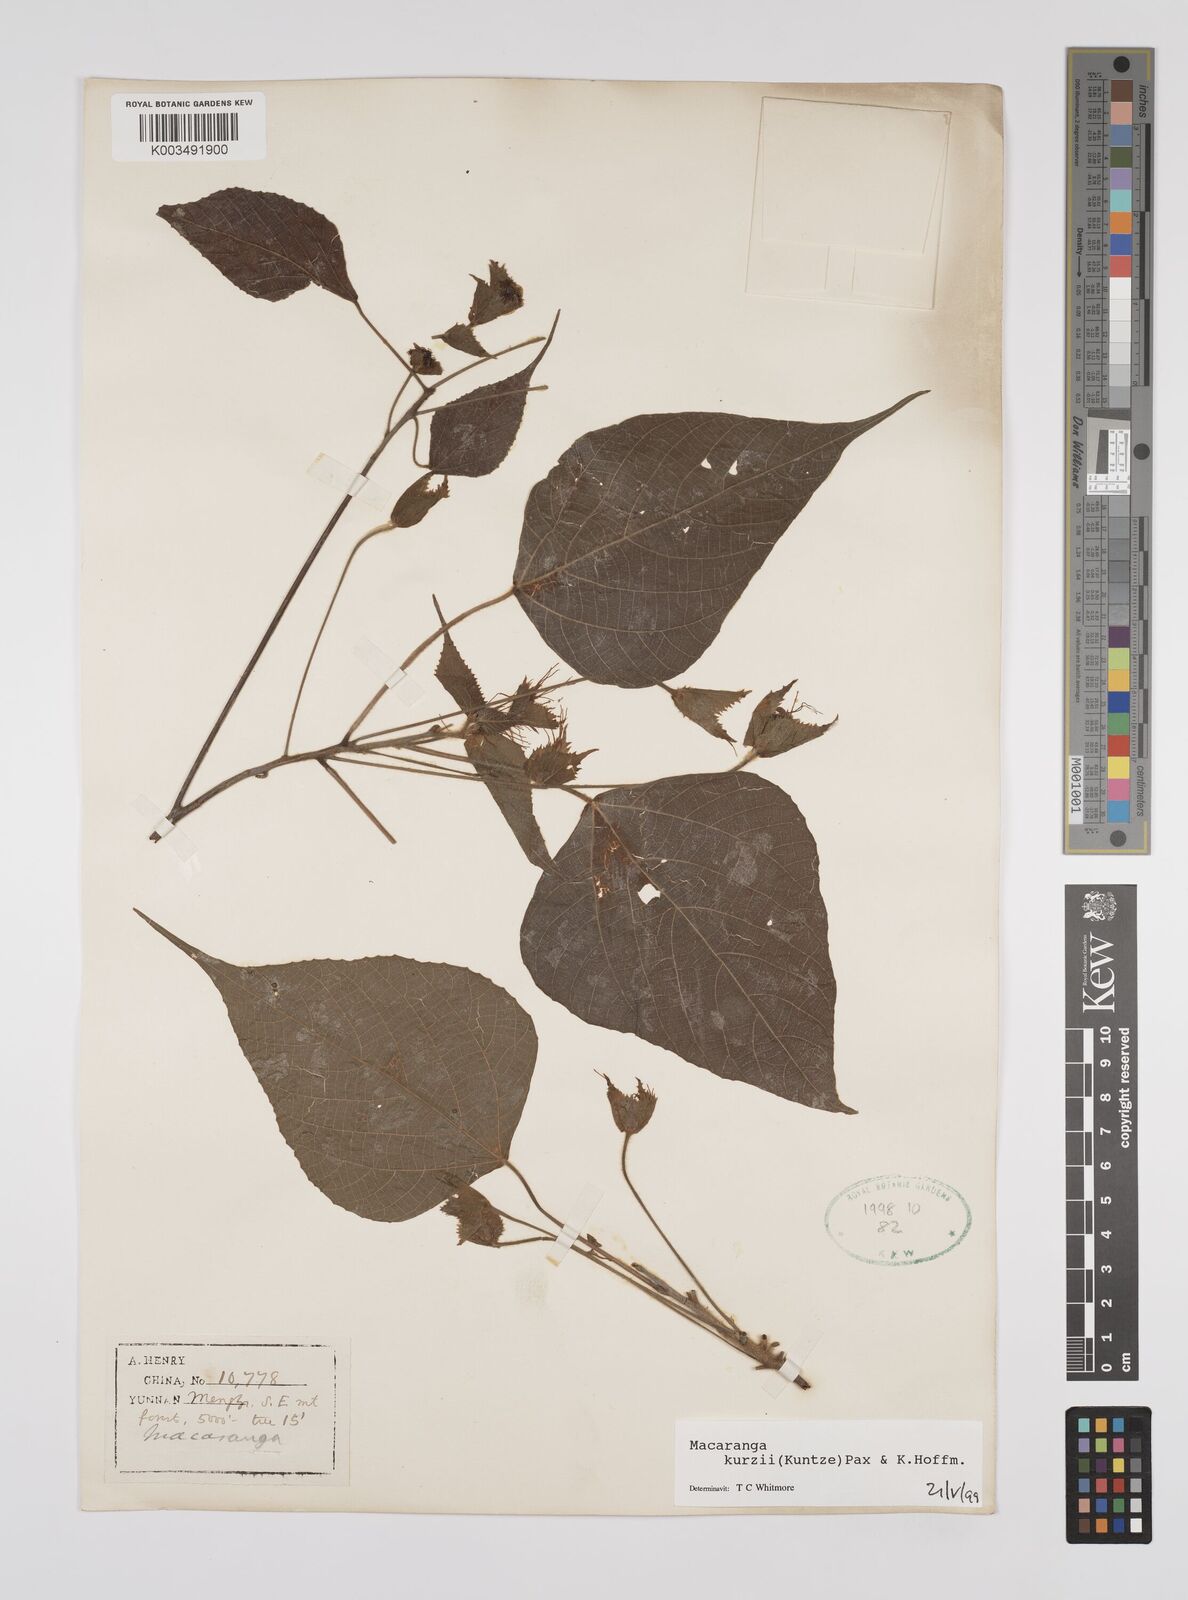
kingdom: Plantae
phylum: Tracheophyta
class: Magnoliopsida
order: Malpighiales
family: Euphorbiaceae
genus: Macaranga
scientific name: Macaranga kurzii
